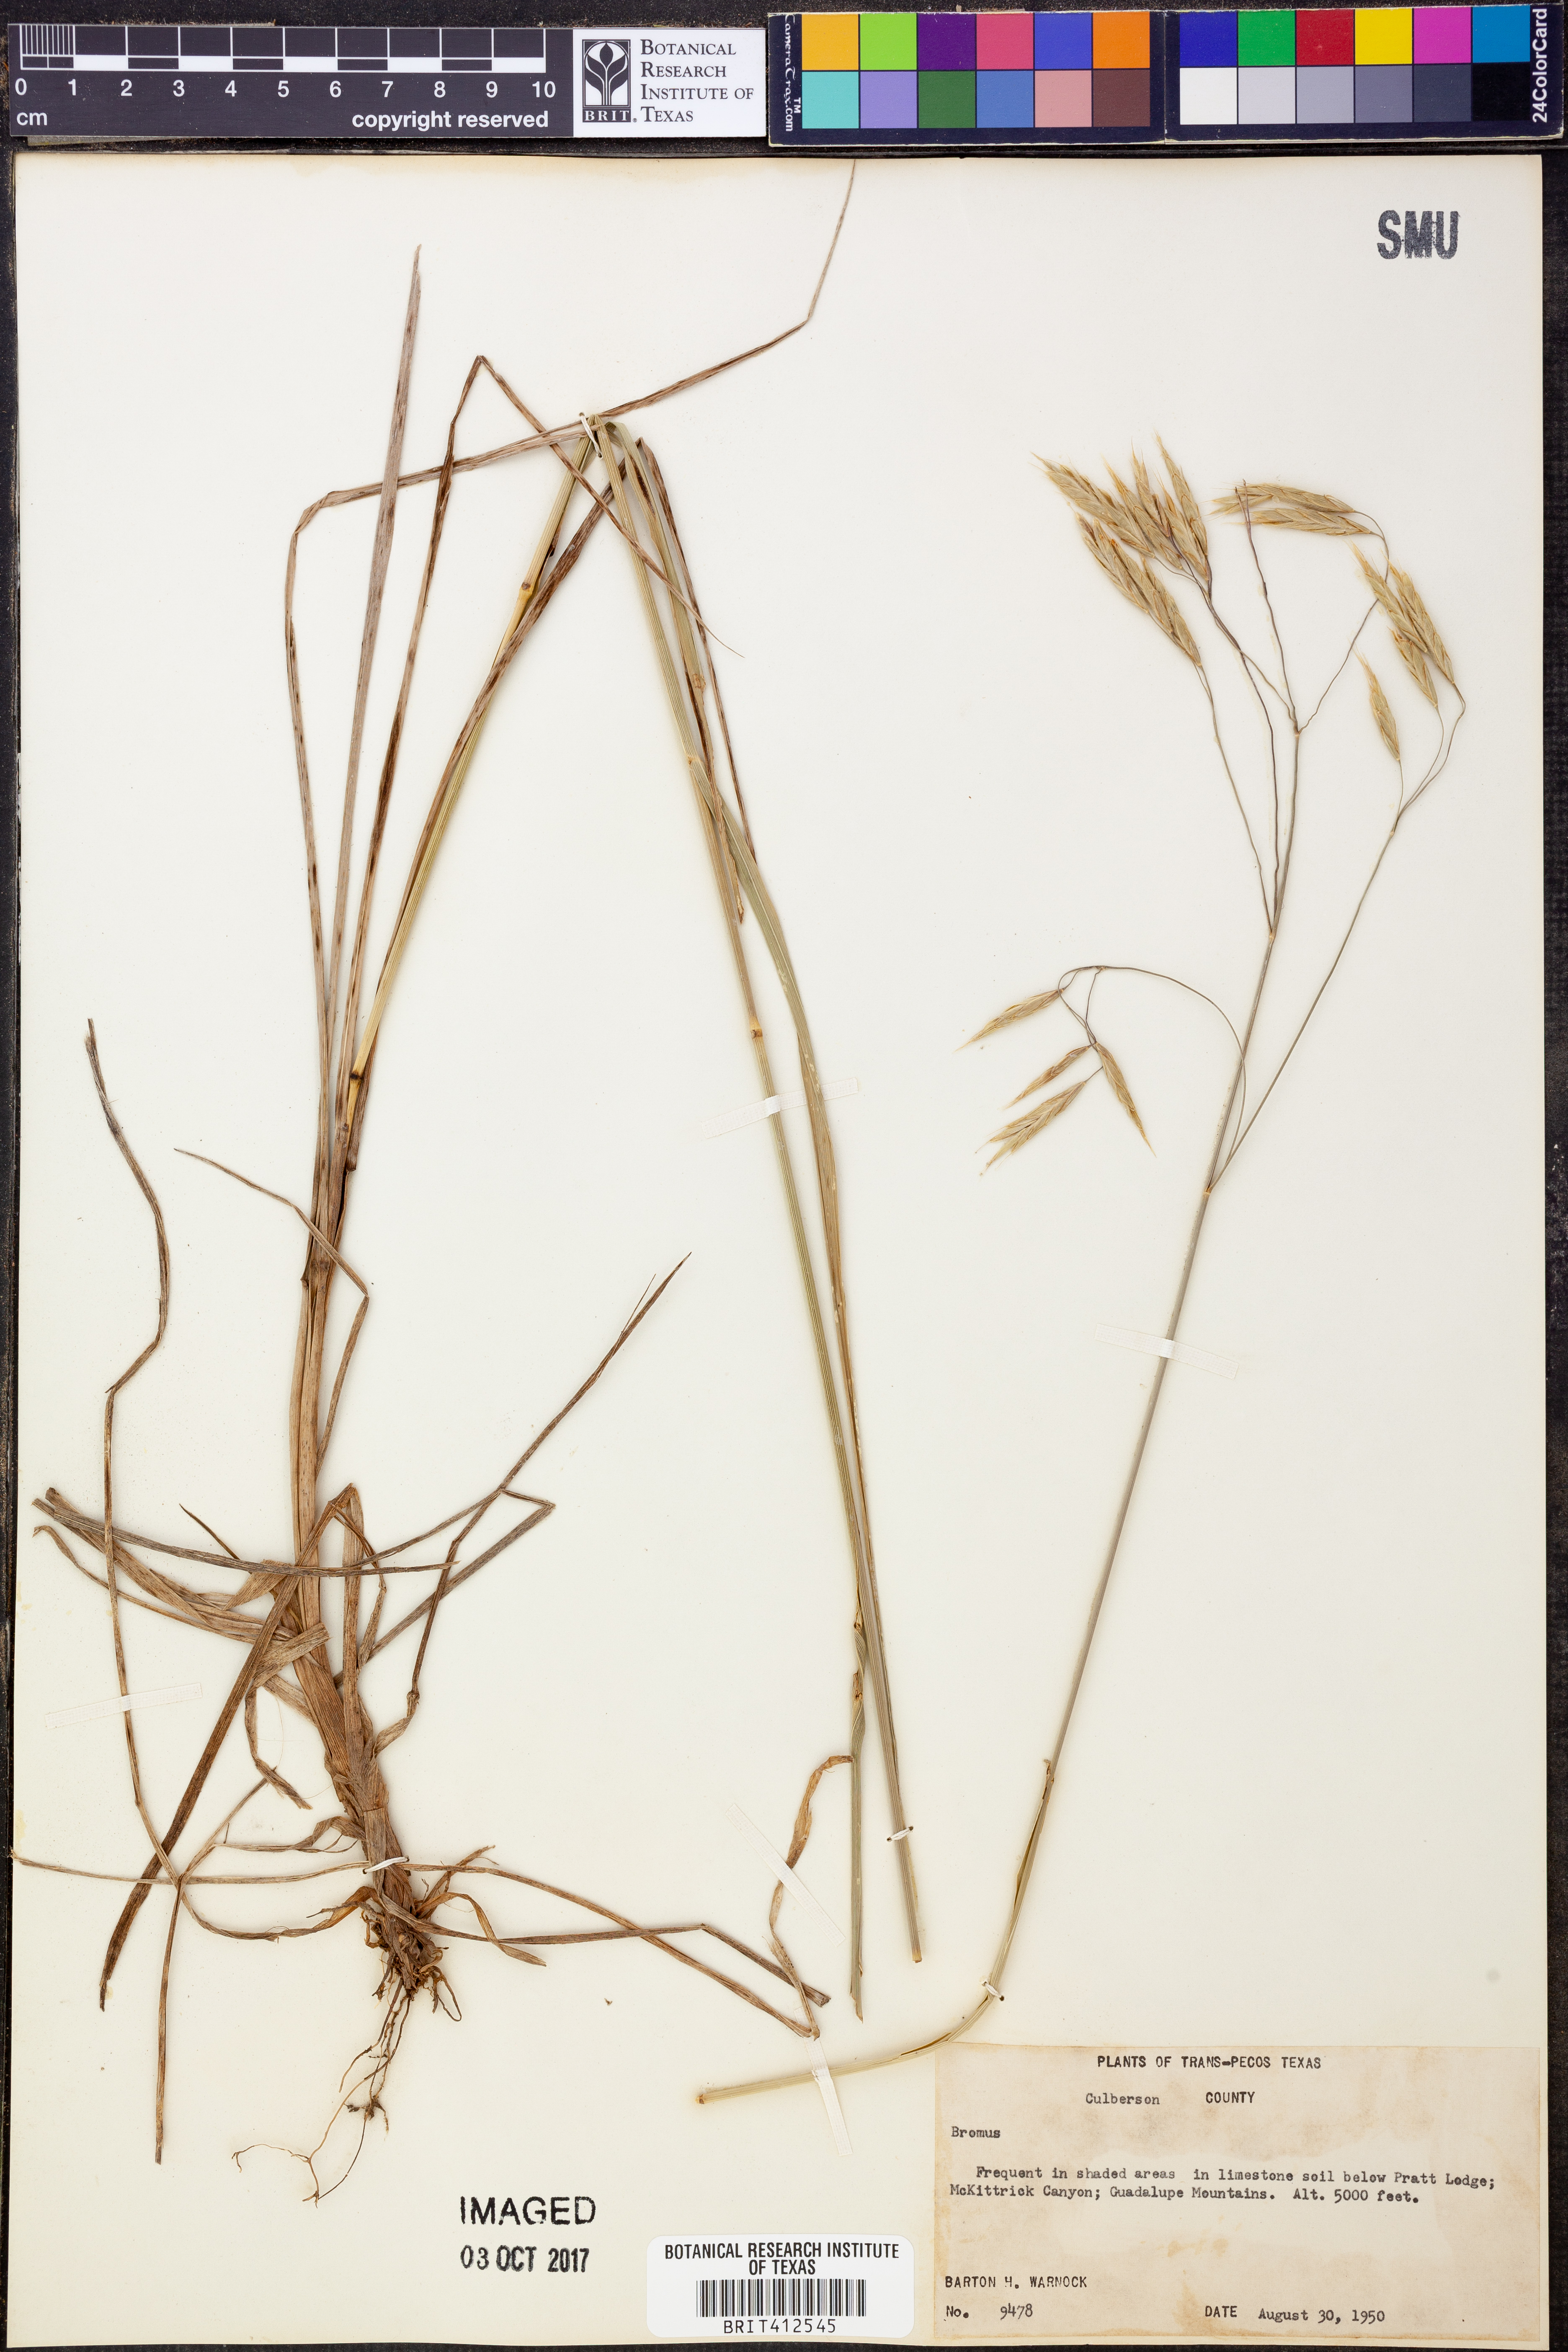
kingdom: Plantae
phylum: Tracheophyta
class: Liliopsida
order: Poales
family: Poaceae
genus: Bromus
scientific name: Bromus
